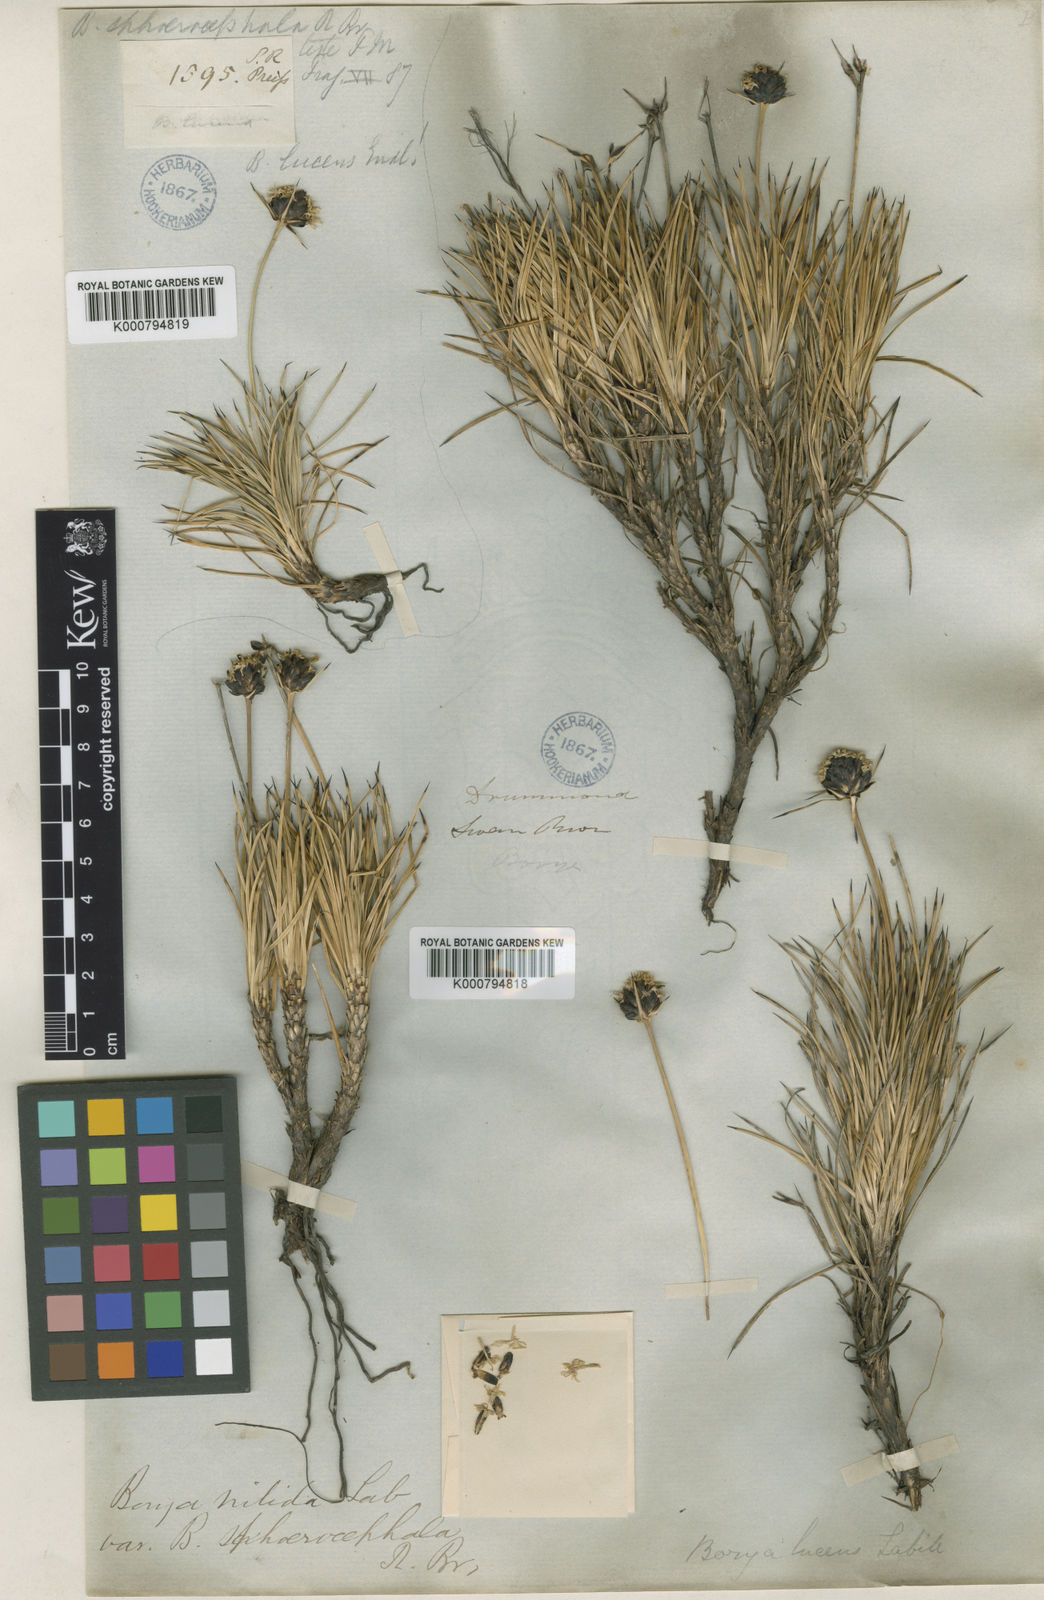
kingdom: Plantae
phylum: Tracheophyta
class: Liliopsida
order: Asparagales
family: Boryaceae
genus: Borya
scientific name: Borya nitida
